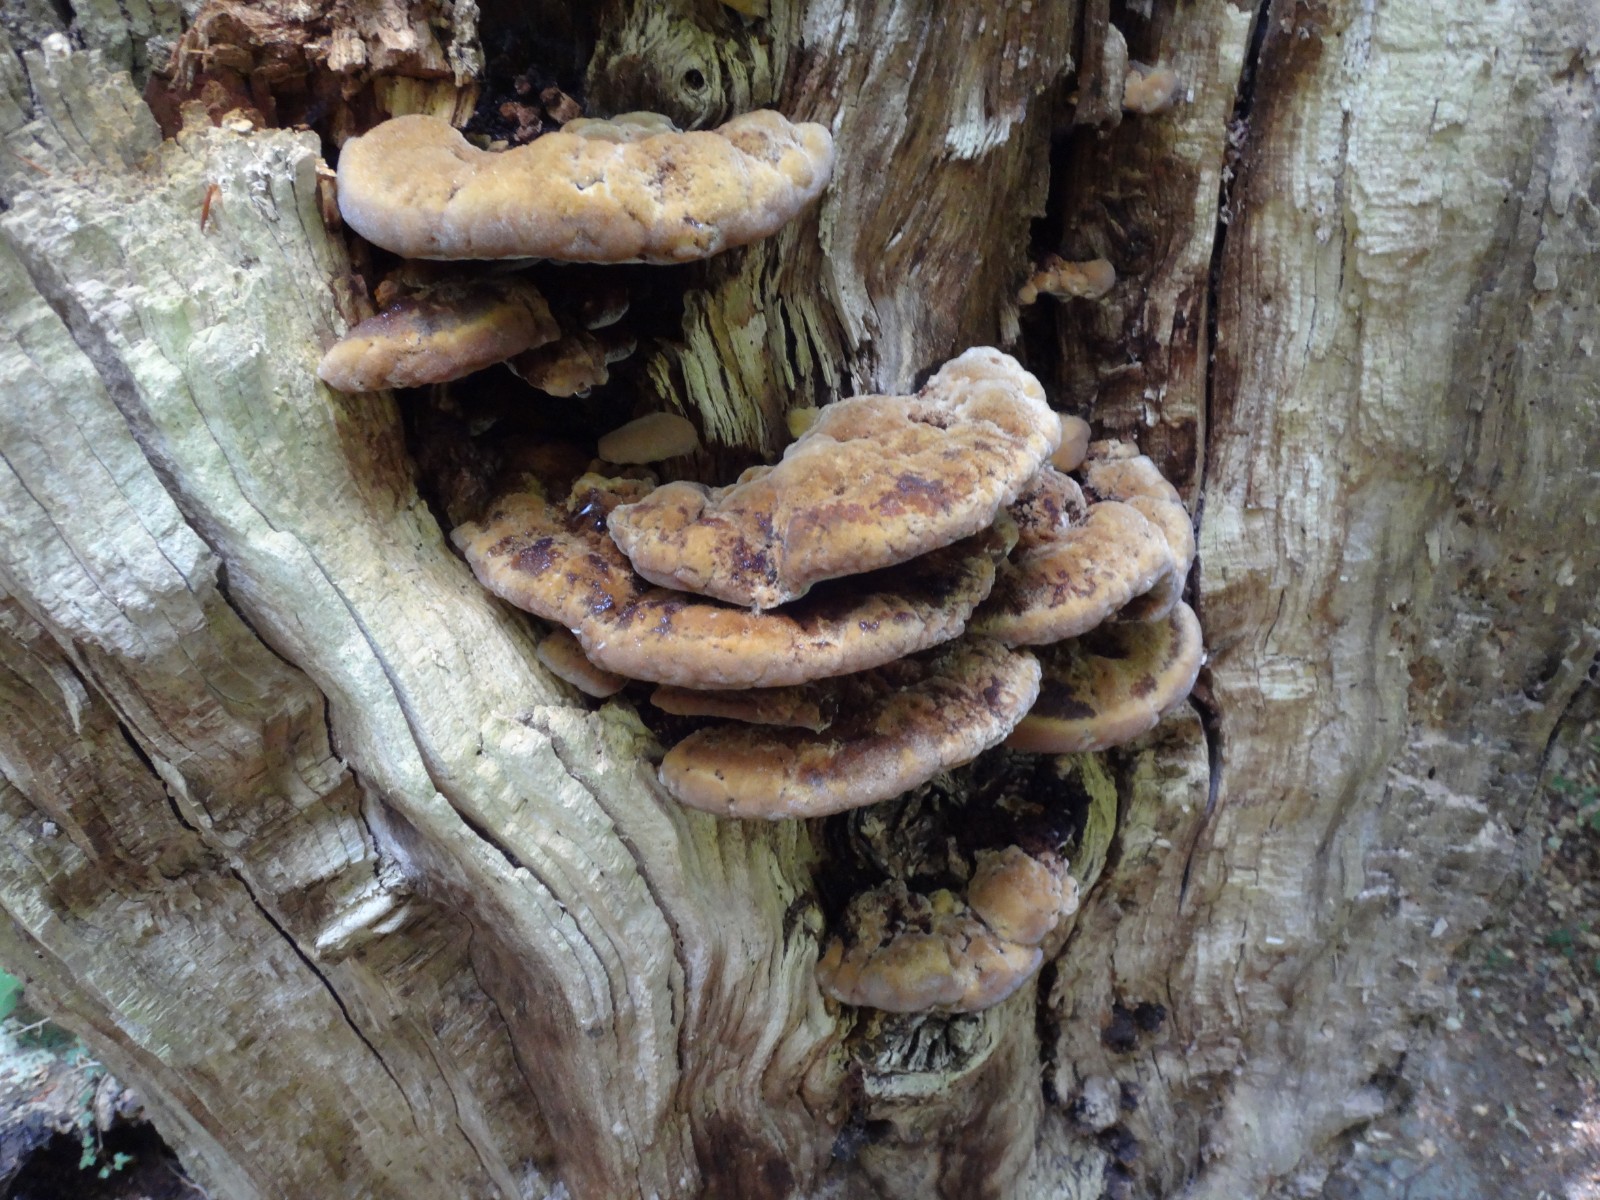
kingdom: Fungi
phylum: Basidiomycota
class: Agaricomycetes
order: Hymenochaetales
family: Hymenochaetaceae
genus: Inonotus
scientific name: Inonotus cuticularis
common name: kroghåret spejlporesvamp
